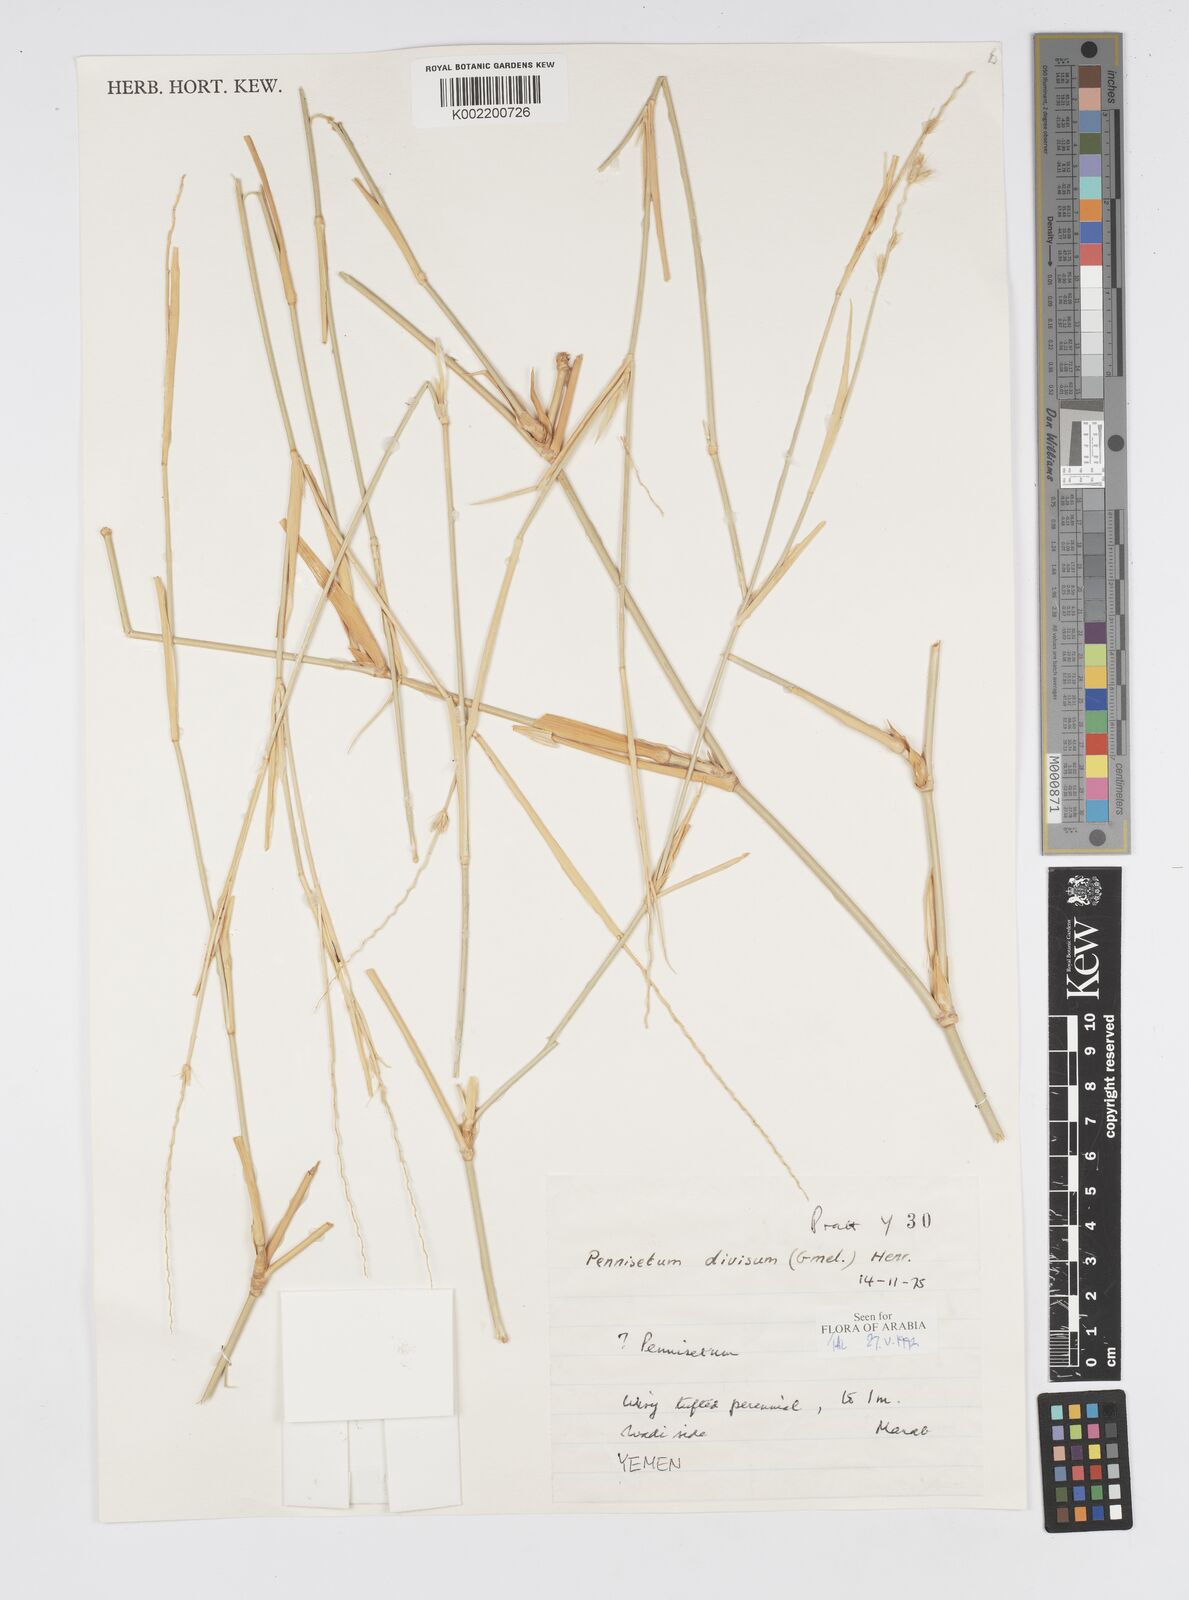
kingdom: Plantae
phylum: Tracheophyta
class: Liliopsida
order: Poales
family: Poaceae
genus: Cenchrus
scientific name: Cenchrus divisus
